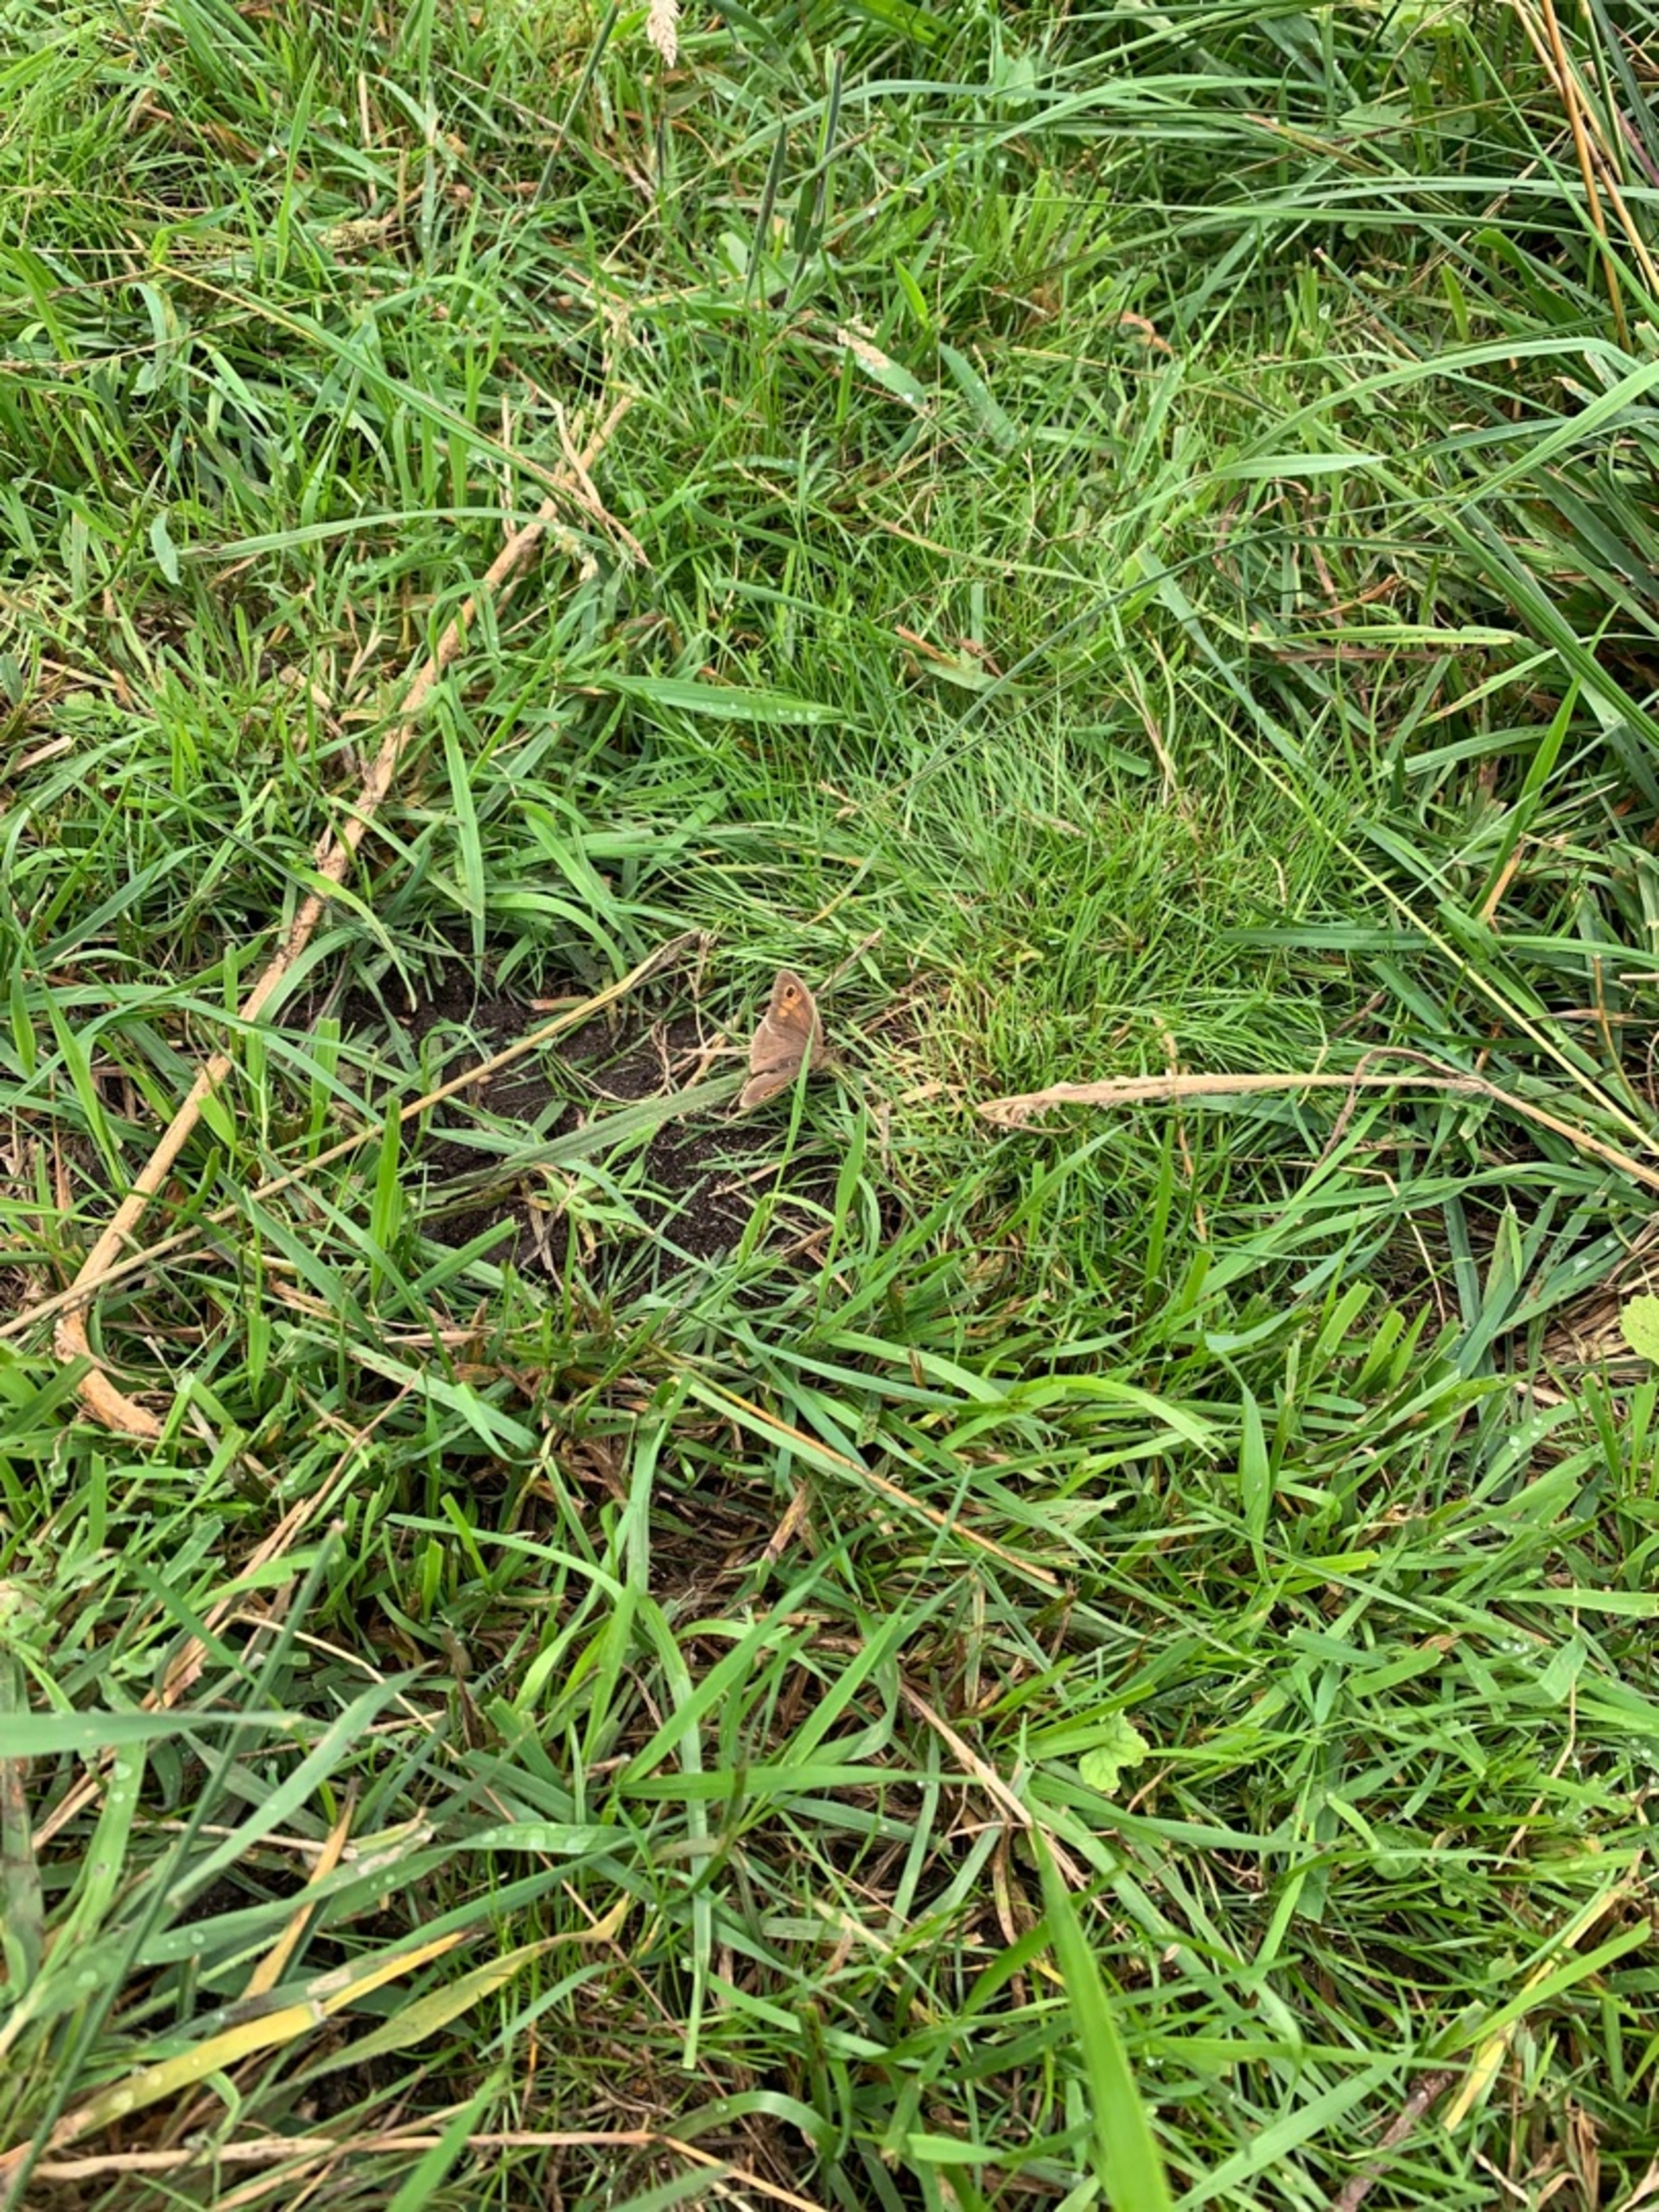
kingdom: Animalia
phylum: Arthropoda
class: Insecta
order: Lepidoptera
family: Nymphalidae
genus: Maniola
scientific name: Maniola jurtina
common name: Græsrandøje
